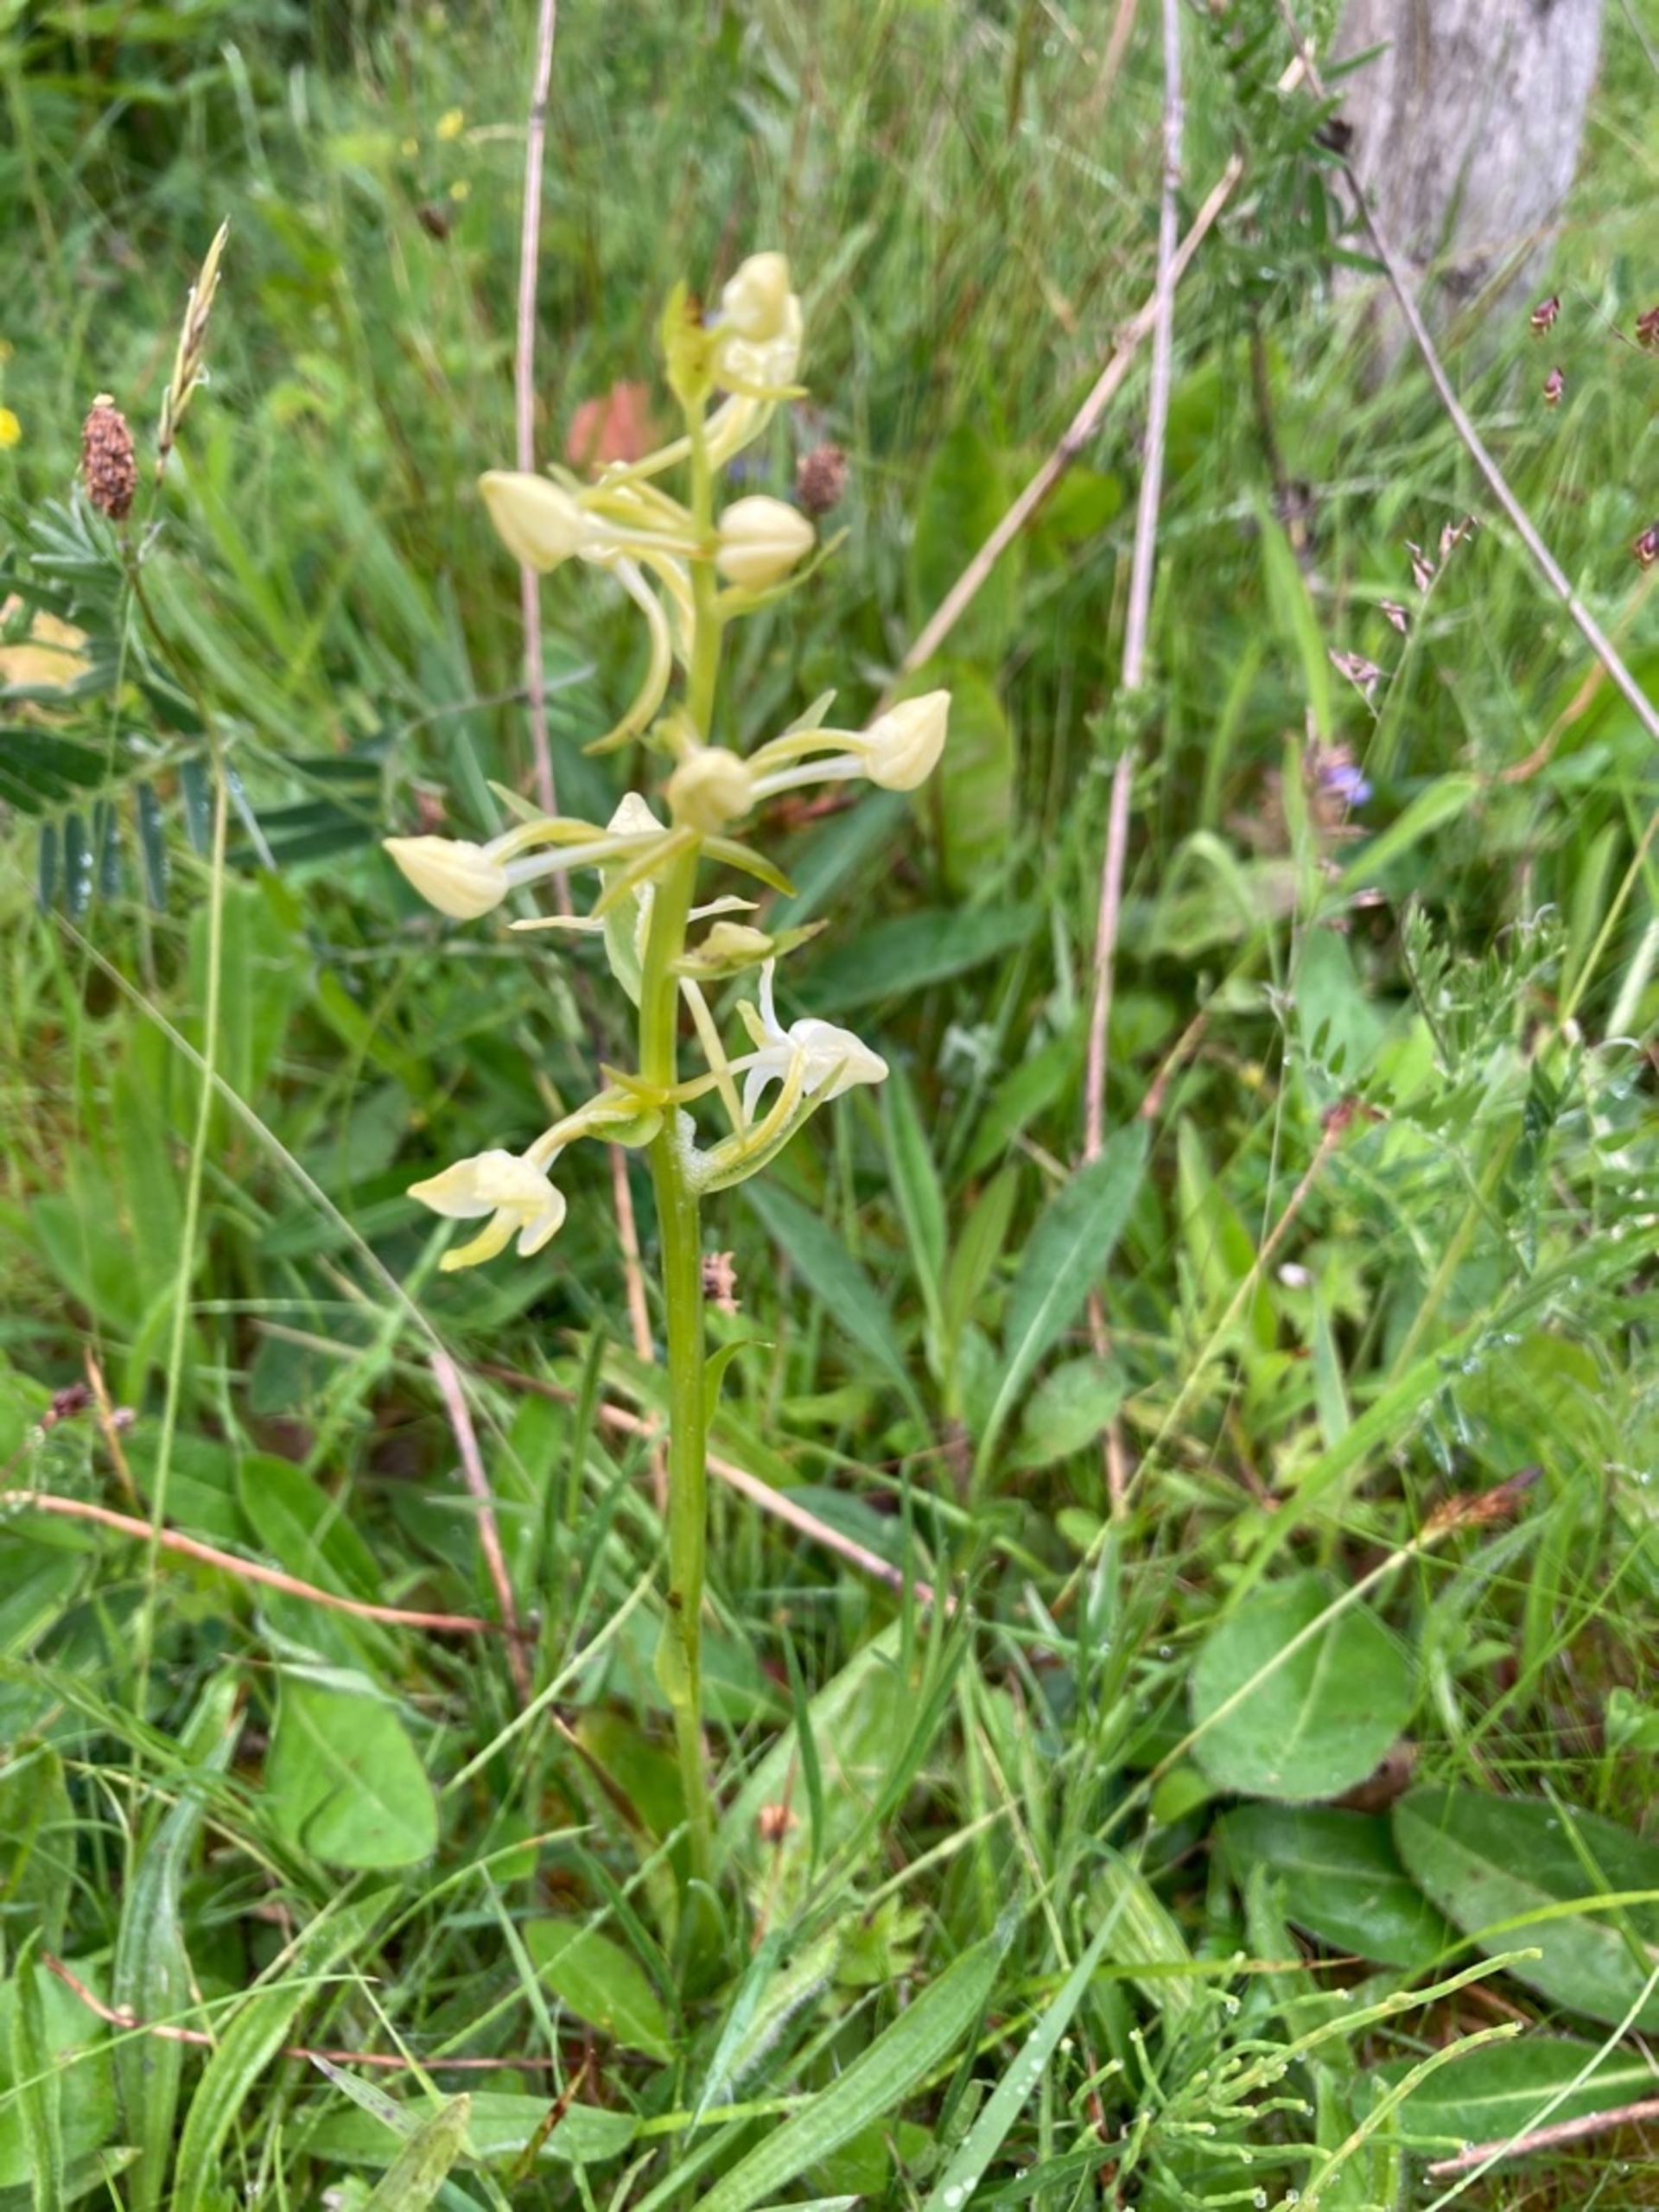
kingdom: Plantae
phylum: Tracheophyta
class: Liliopsida
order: Asparagales
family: Orchidaceae
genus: Platanthera
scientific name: Platanthera chlorantha
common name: Skov-gøgelilje
